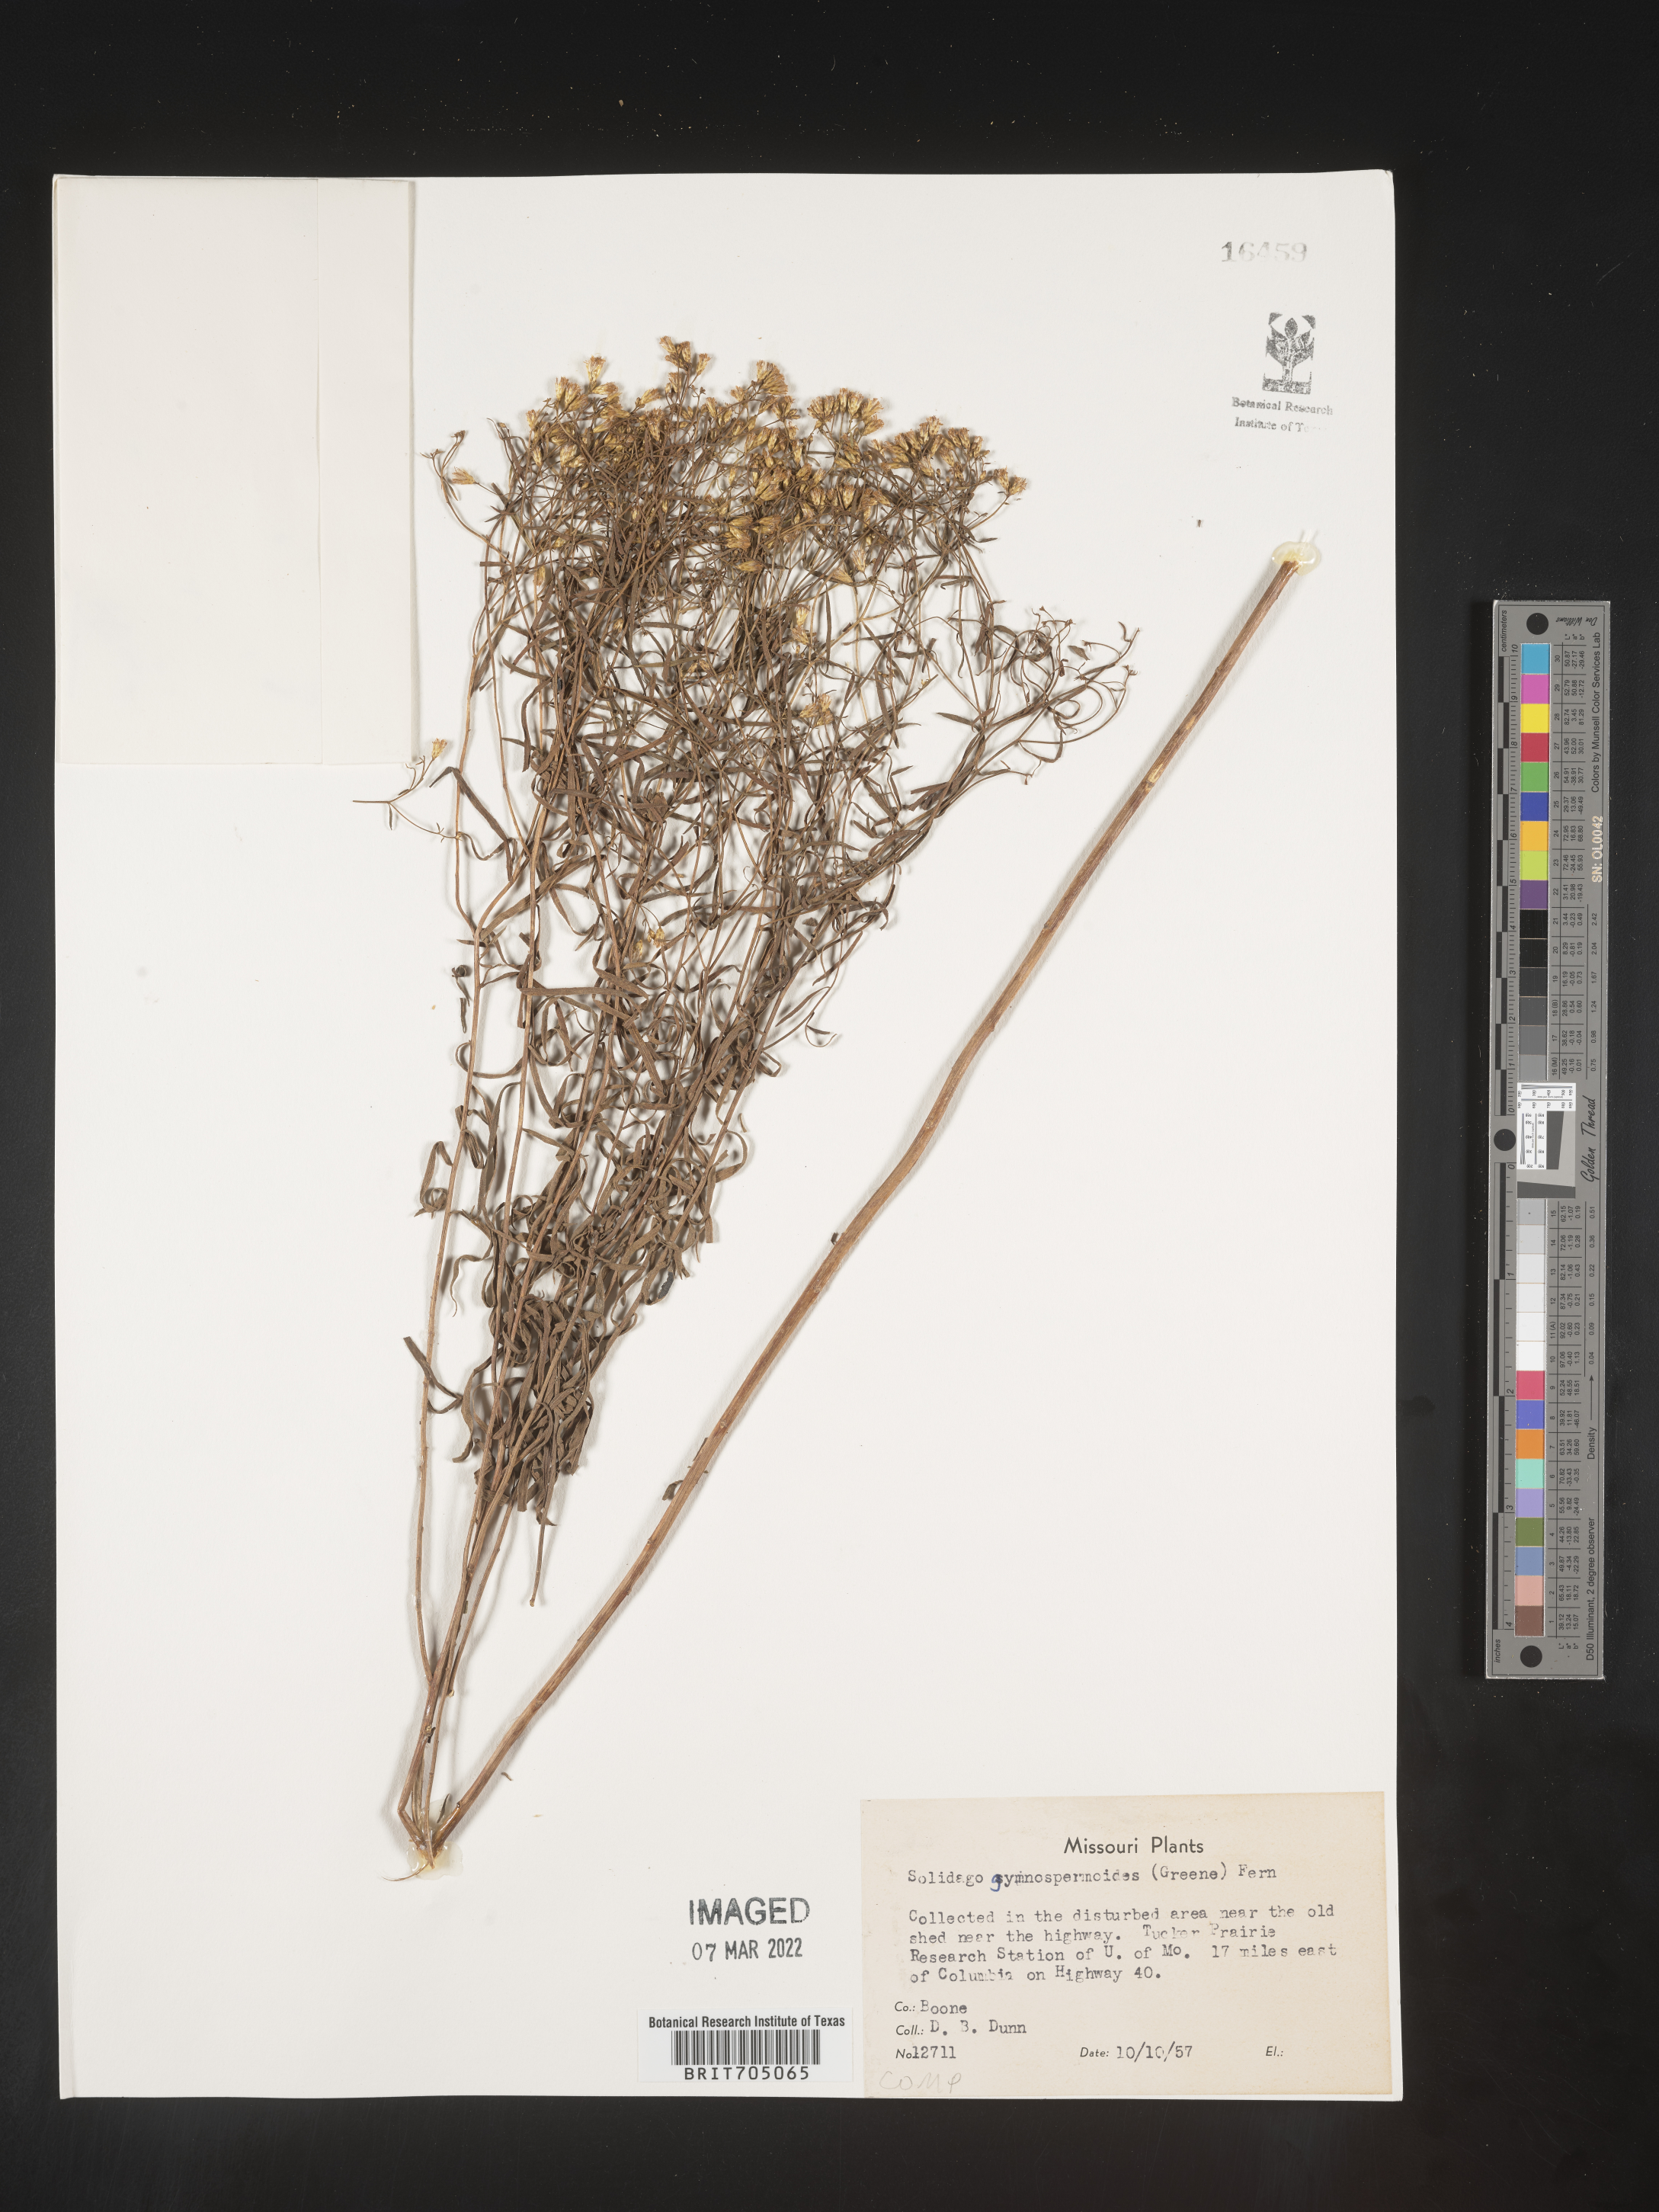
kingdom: Plantae
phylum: Tracheophyta
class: Magnoliopsida
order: Asterales
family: Asteraceae
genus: Euthamia
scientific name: Euthamia gymnospermoides
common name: Great plains goldentop
